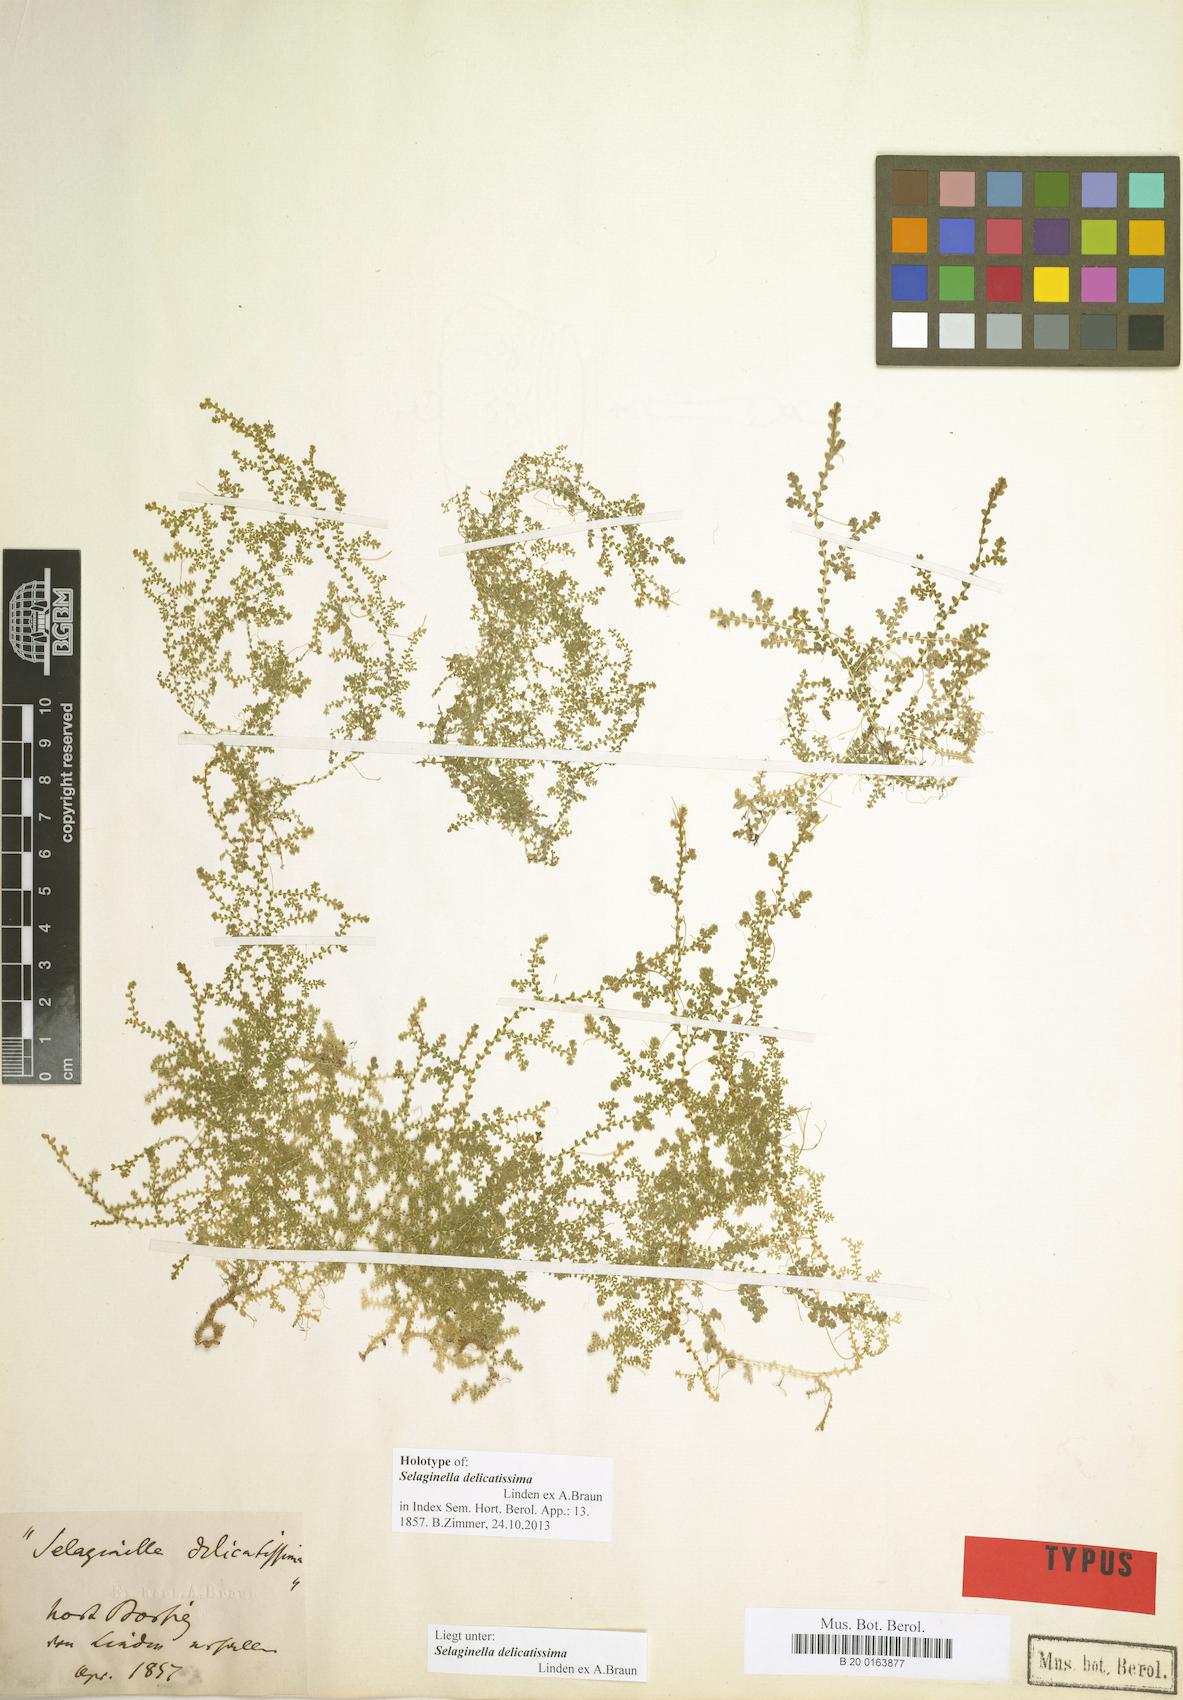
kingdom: Plantae
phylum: Tracheophyta
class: Lycopodiopsida
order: Selaginellales
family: Selaginellaceae
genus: Selaginella
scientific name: Selaginella delicatissima
